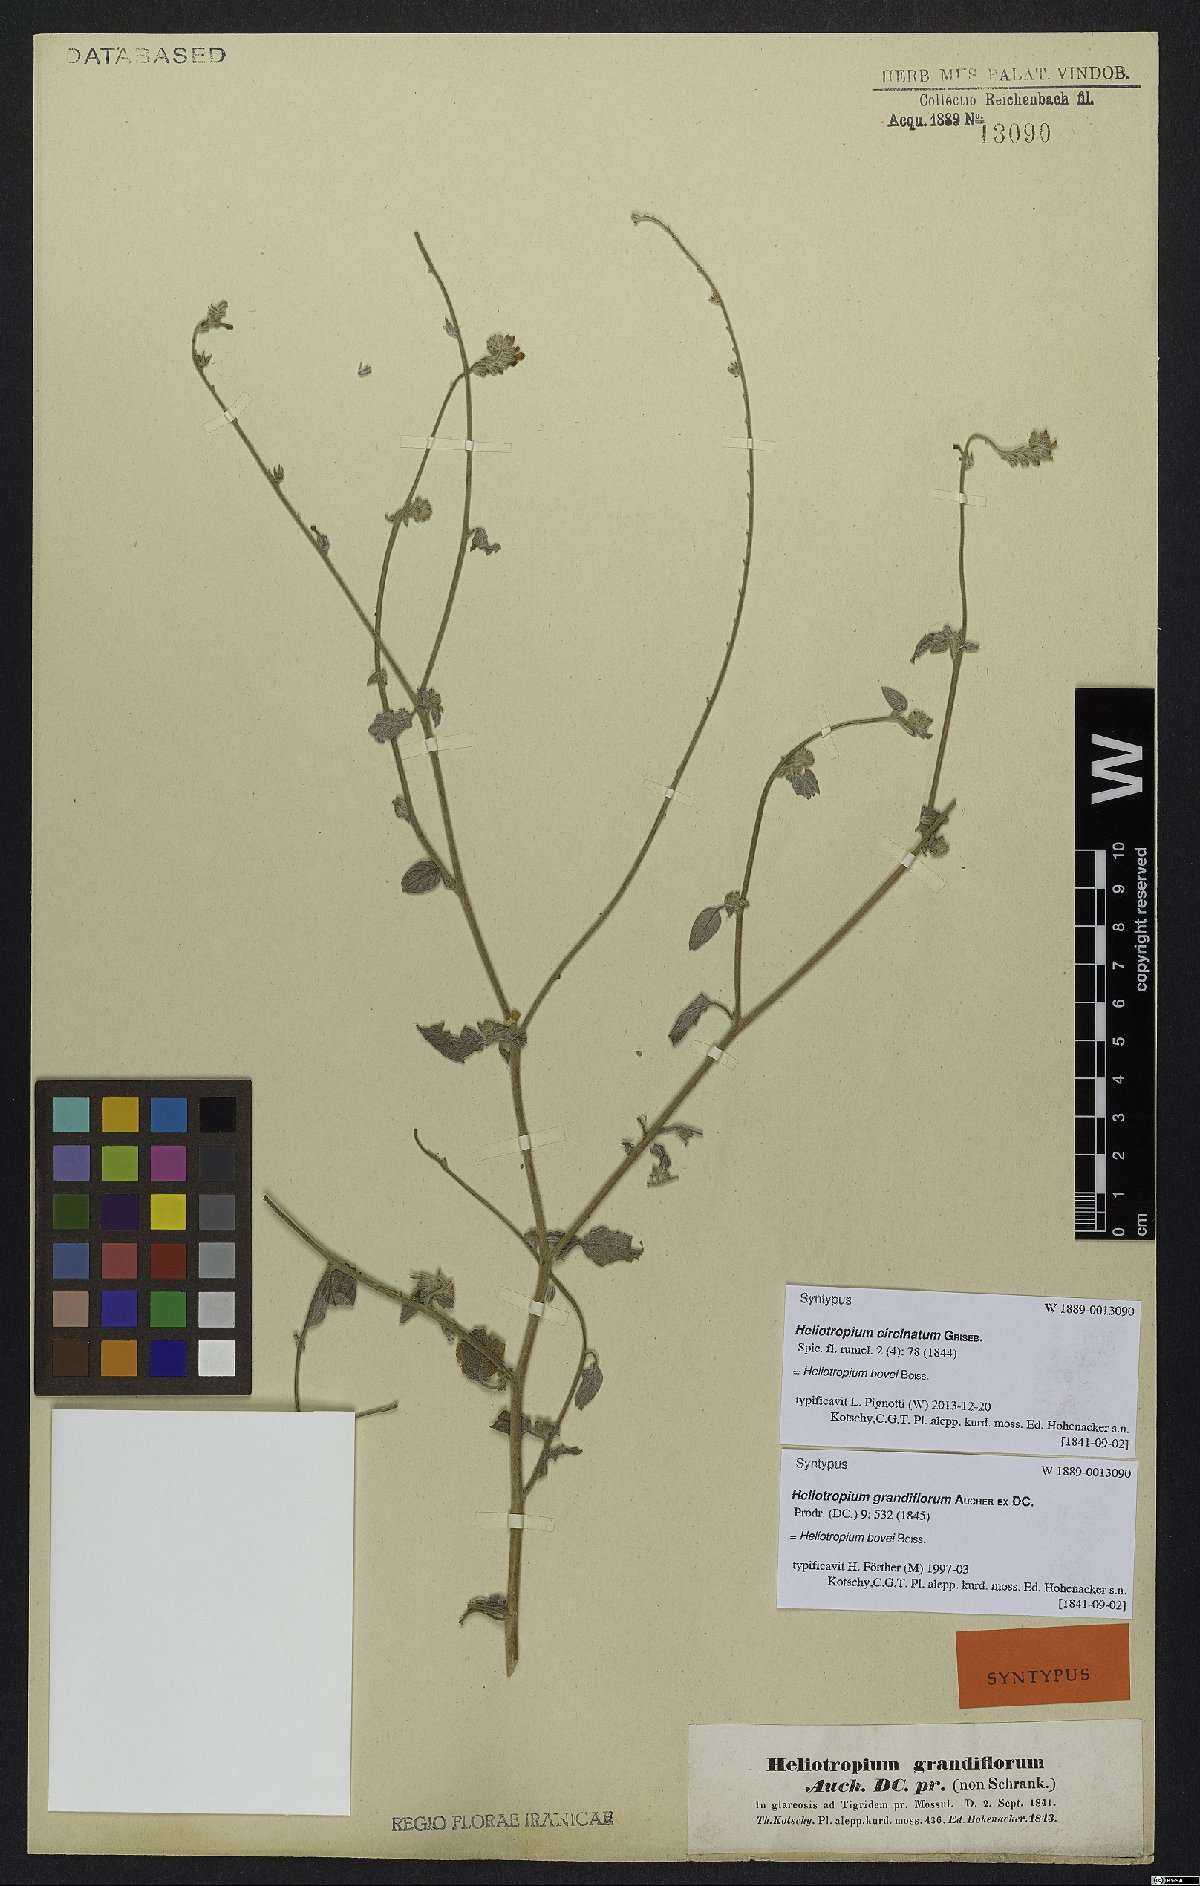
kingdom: Plantae
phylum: Tracheophyta
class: Magnoliopsida
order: Boraginales
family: Heliotropiaceae
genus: Heliotropium
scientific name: Heliotropium bovei
